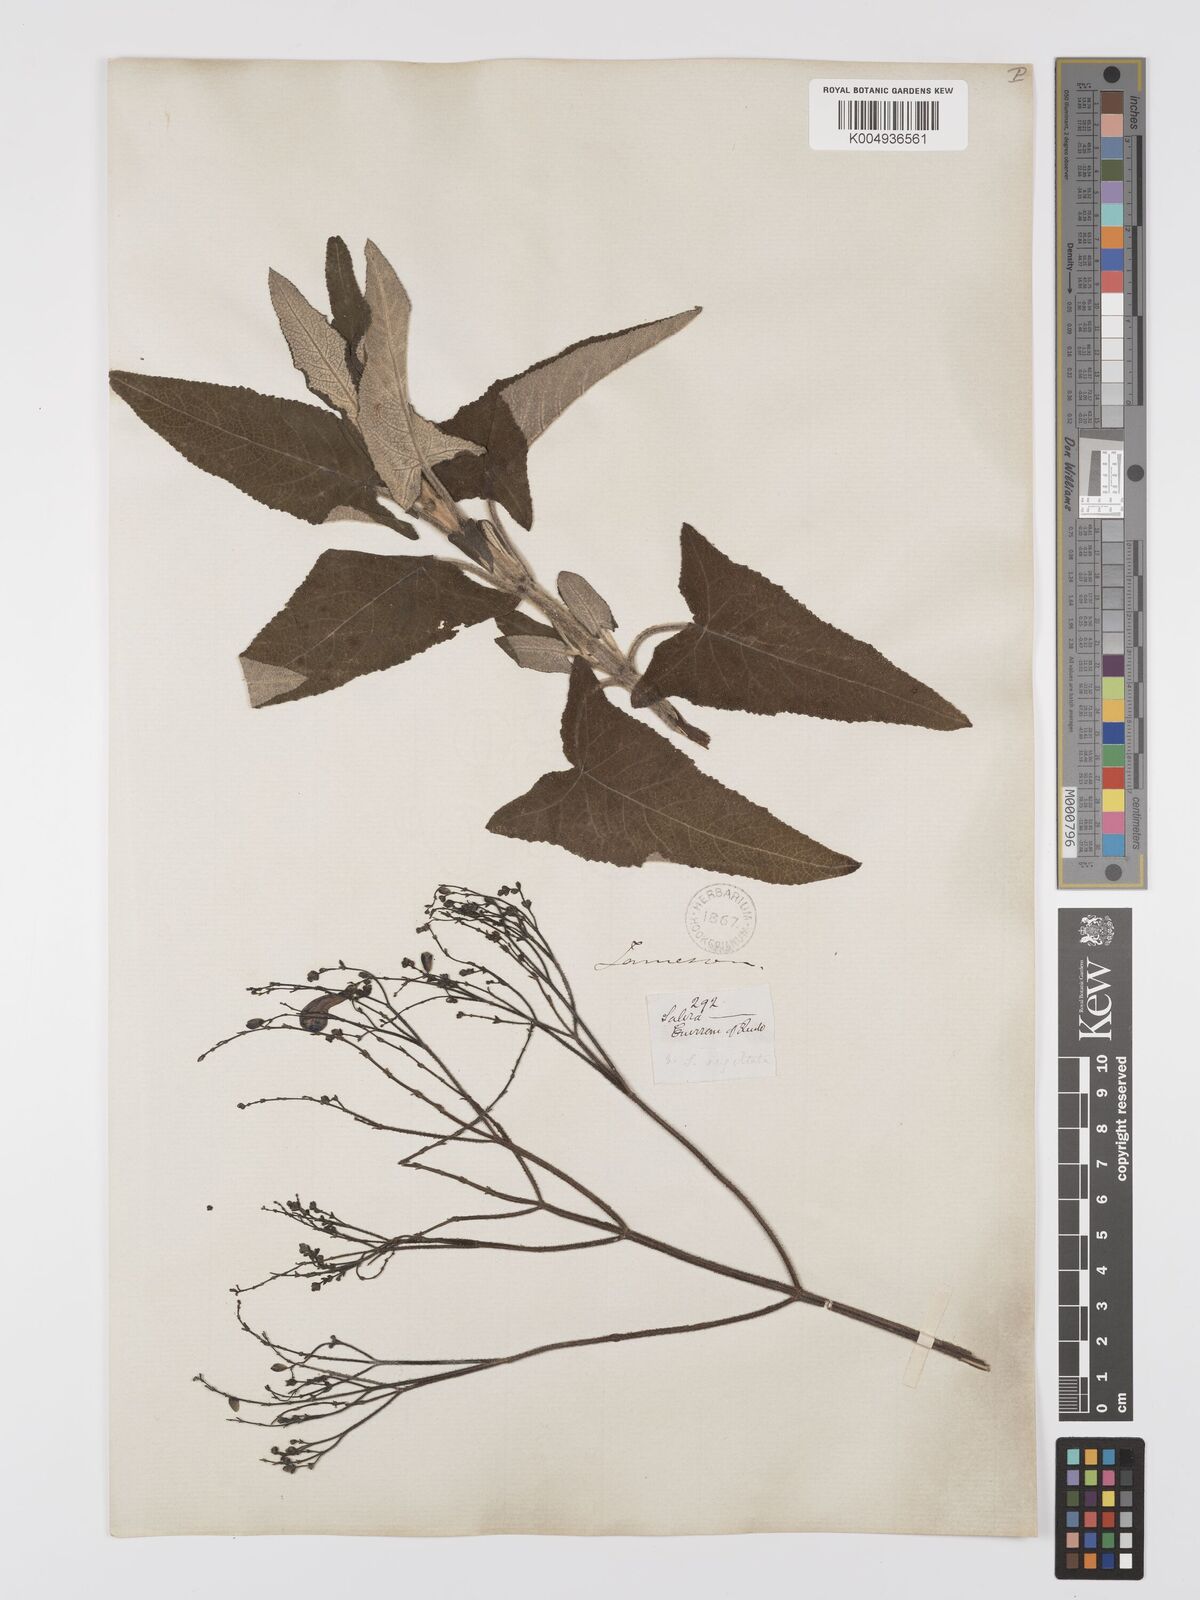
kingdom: Plantae
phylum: Tracheophyta
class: Magnoliopsida
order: Lamiales
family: Lamiaceae
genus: Salvia
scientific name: Salvia sagittata
